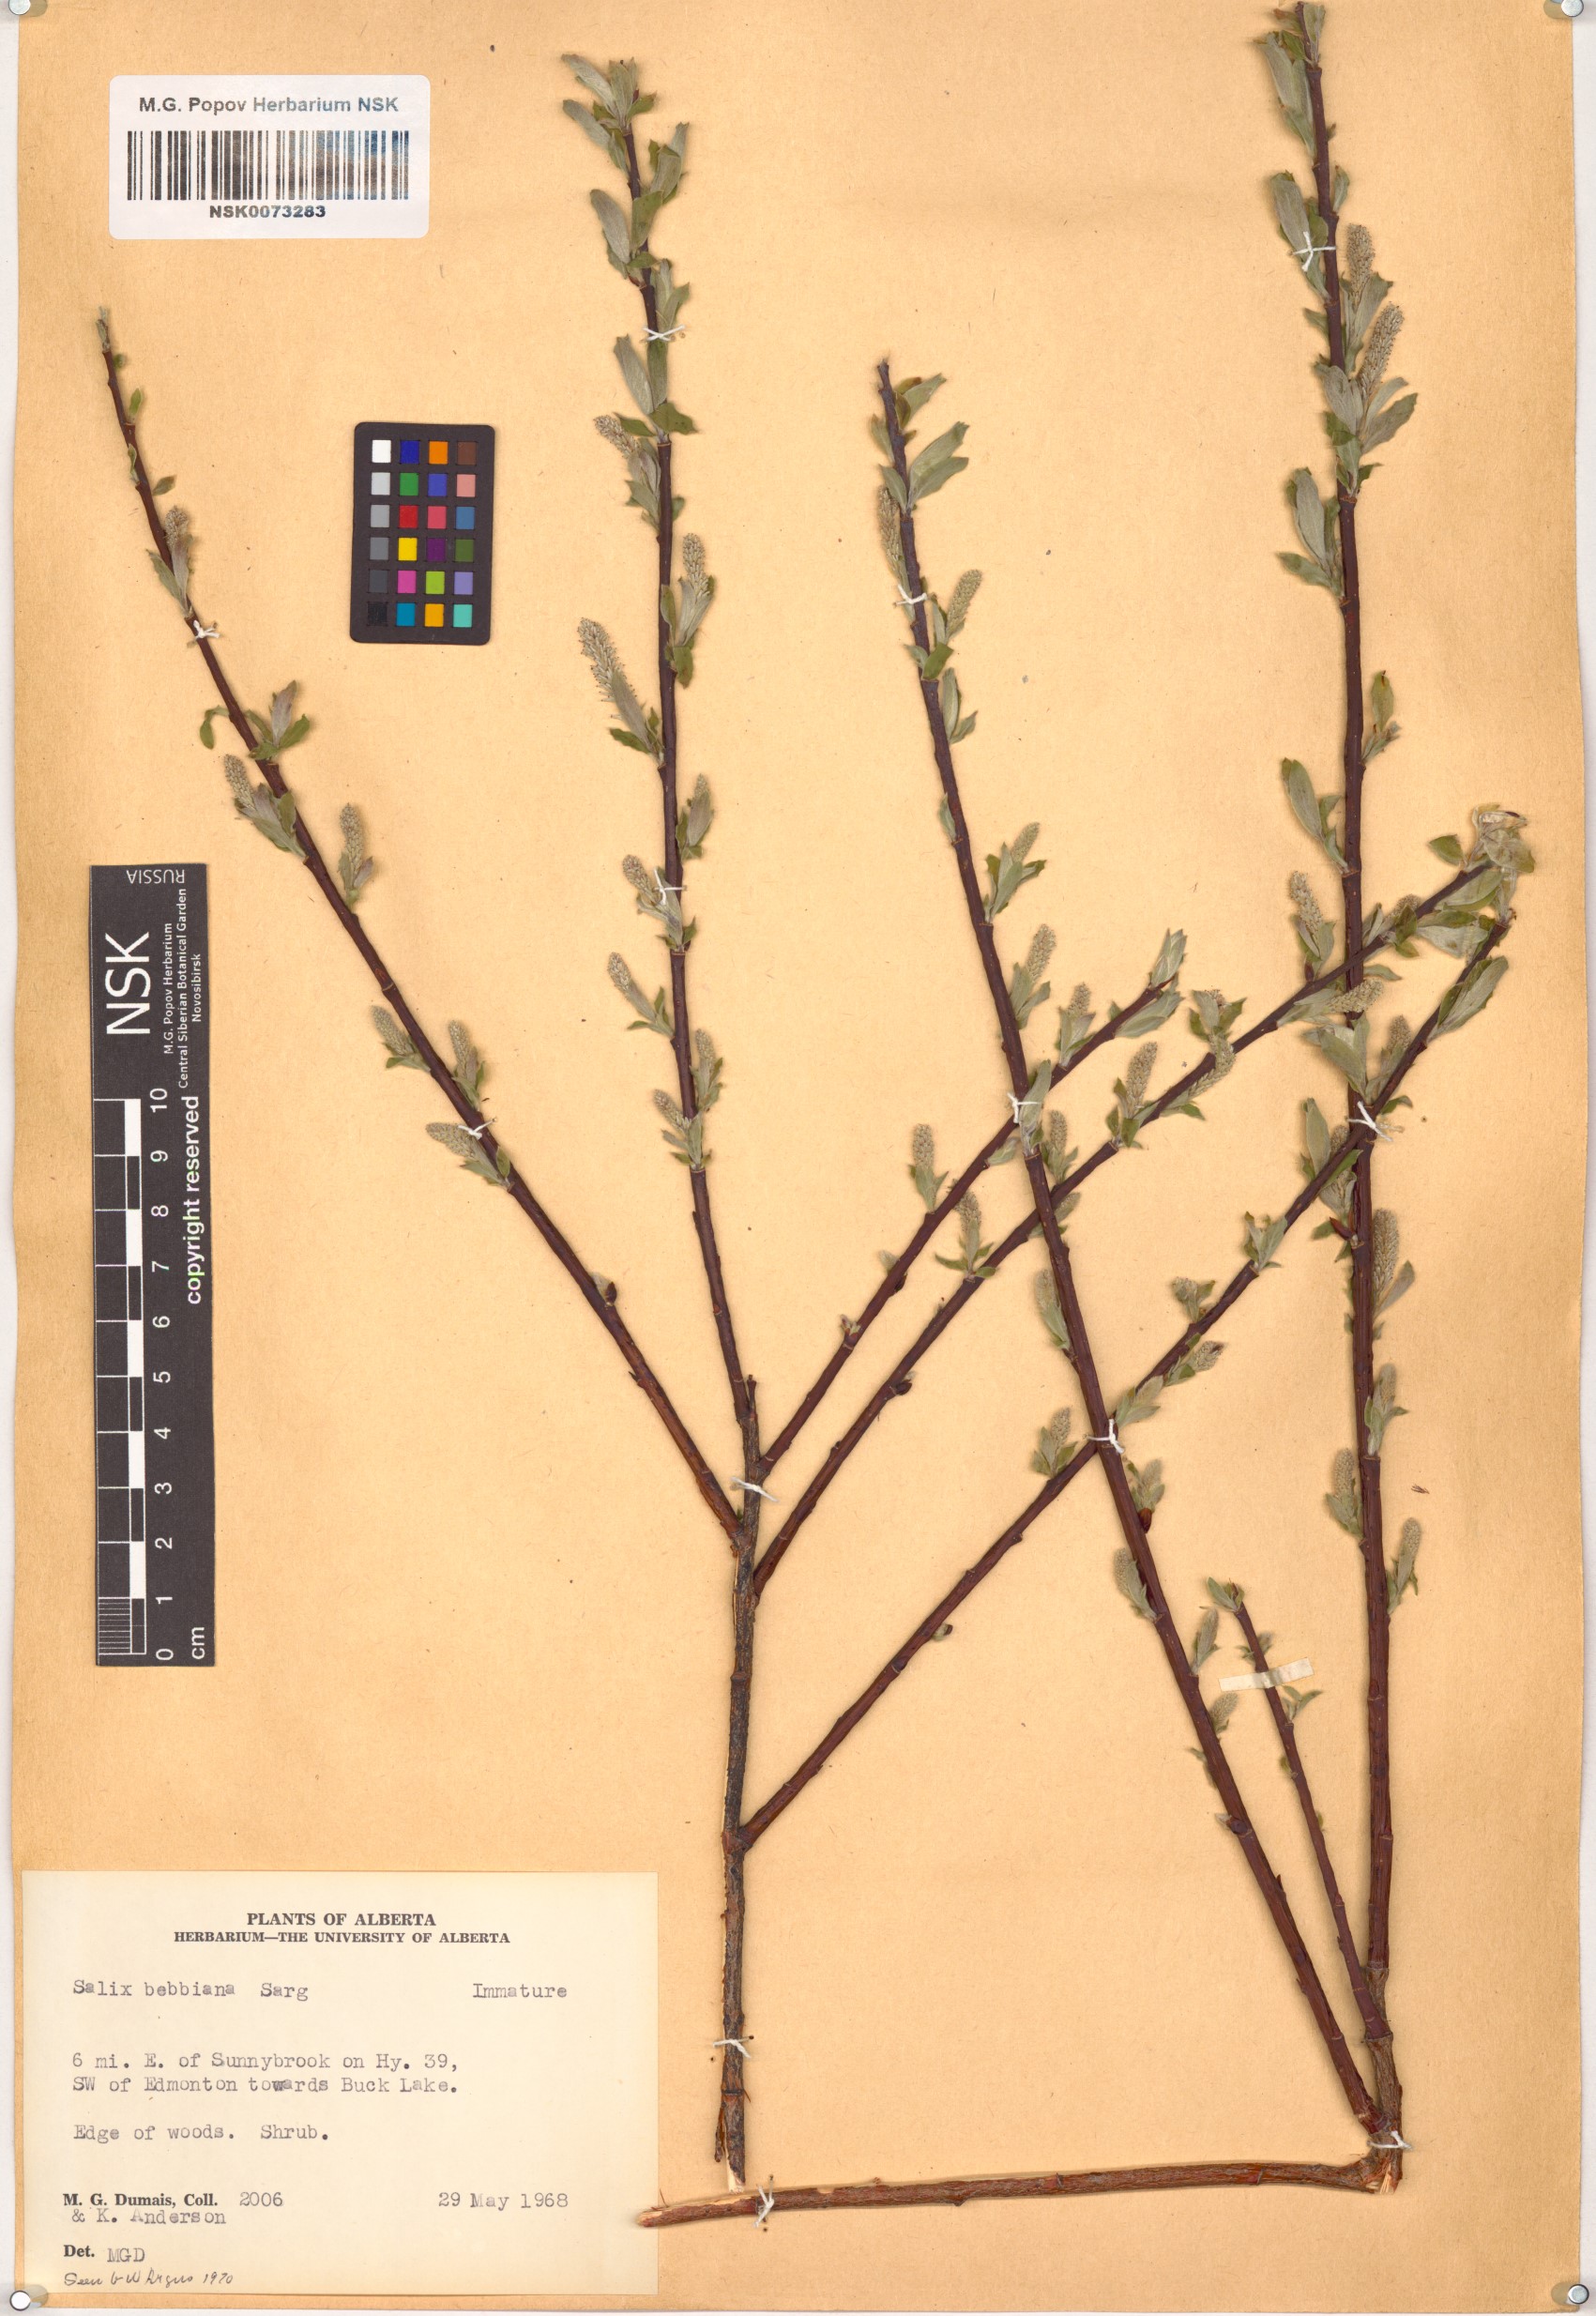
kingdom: Plantae
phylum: Tracheophyta
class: Magnoliopsida
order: Malpighiales
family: Salicaceae
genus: Salix
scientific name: Salix bebbiana
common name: Bebb's willow
